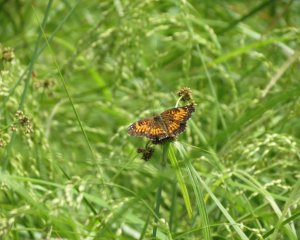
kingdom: Animalia
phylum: Arthropoda
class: Insecta
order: Lepidoptera
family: Nymphalidae
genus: Chlosyne
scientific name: Chlosyne harrisii
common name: Harris's Checkerspot
